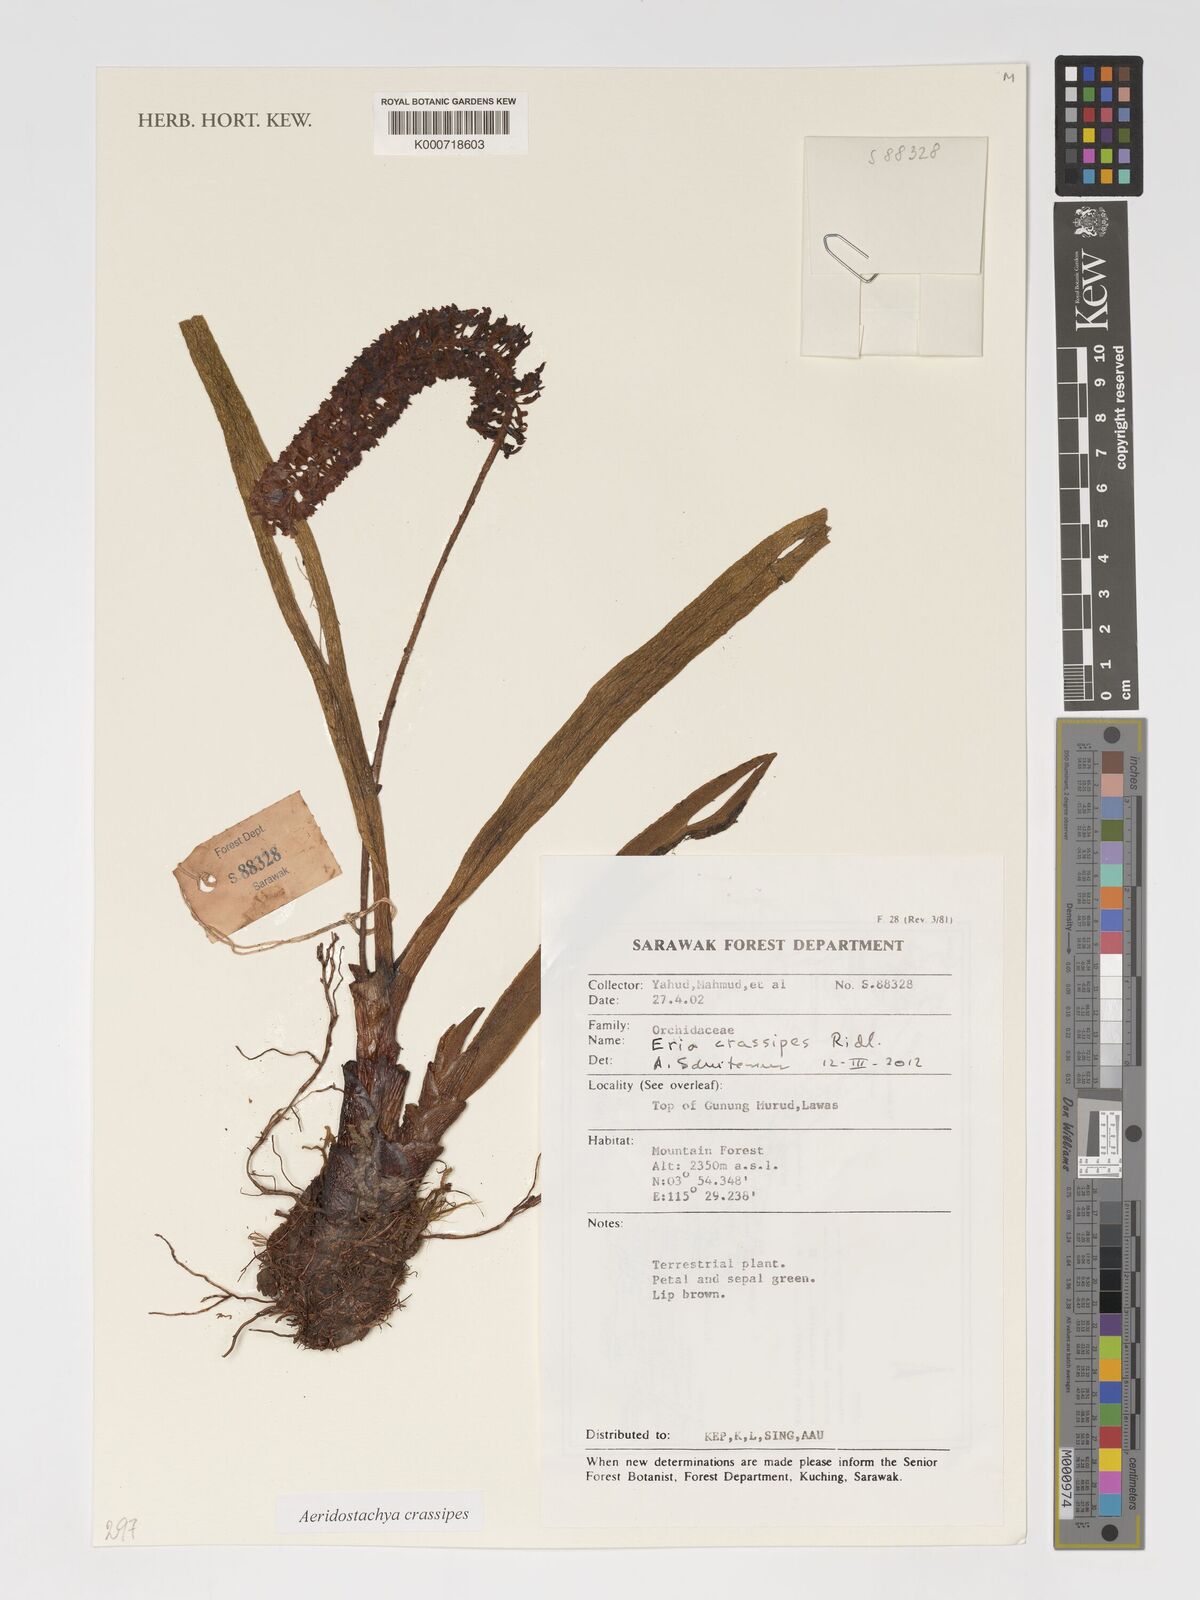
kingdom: Plantae
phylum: Tracheophyta
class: Liliopsida
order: Asparagales
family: Orchidaceae
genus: Aeridostachya
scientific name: Aeridostachya crassipes
